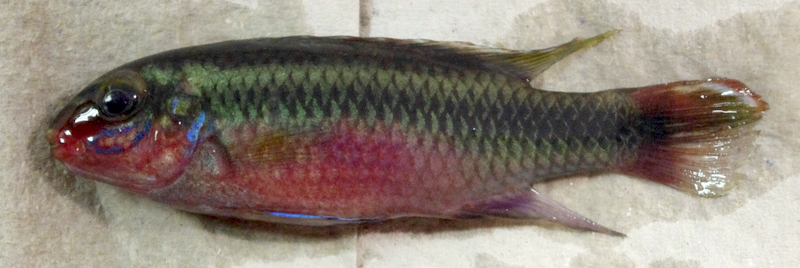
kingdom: Animalia
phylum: Chordata
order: Perciformes
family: Cichlidae
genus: Pelvicachromis
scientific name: Pelvicachromis pulcher
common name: Kribensis
